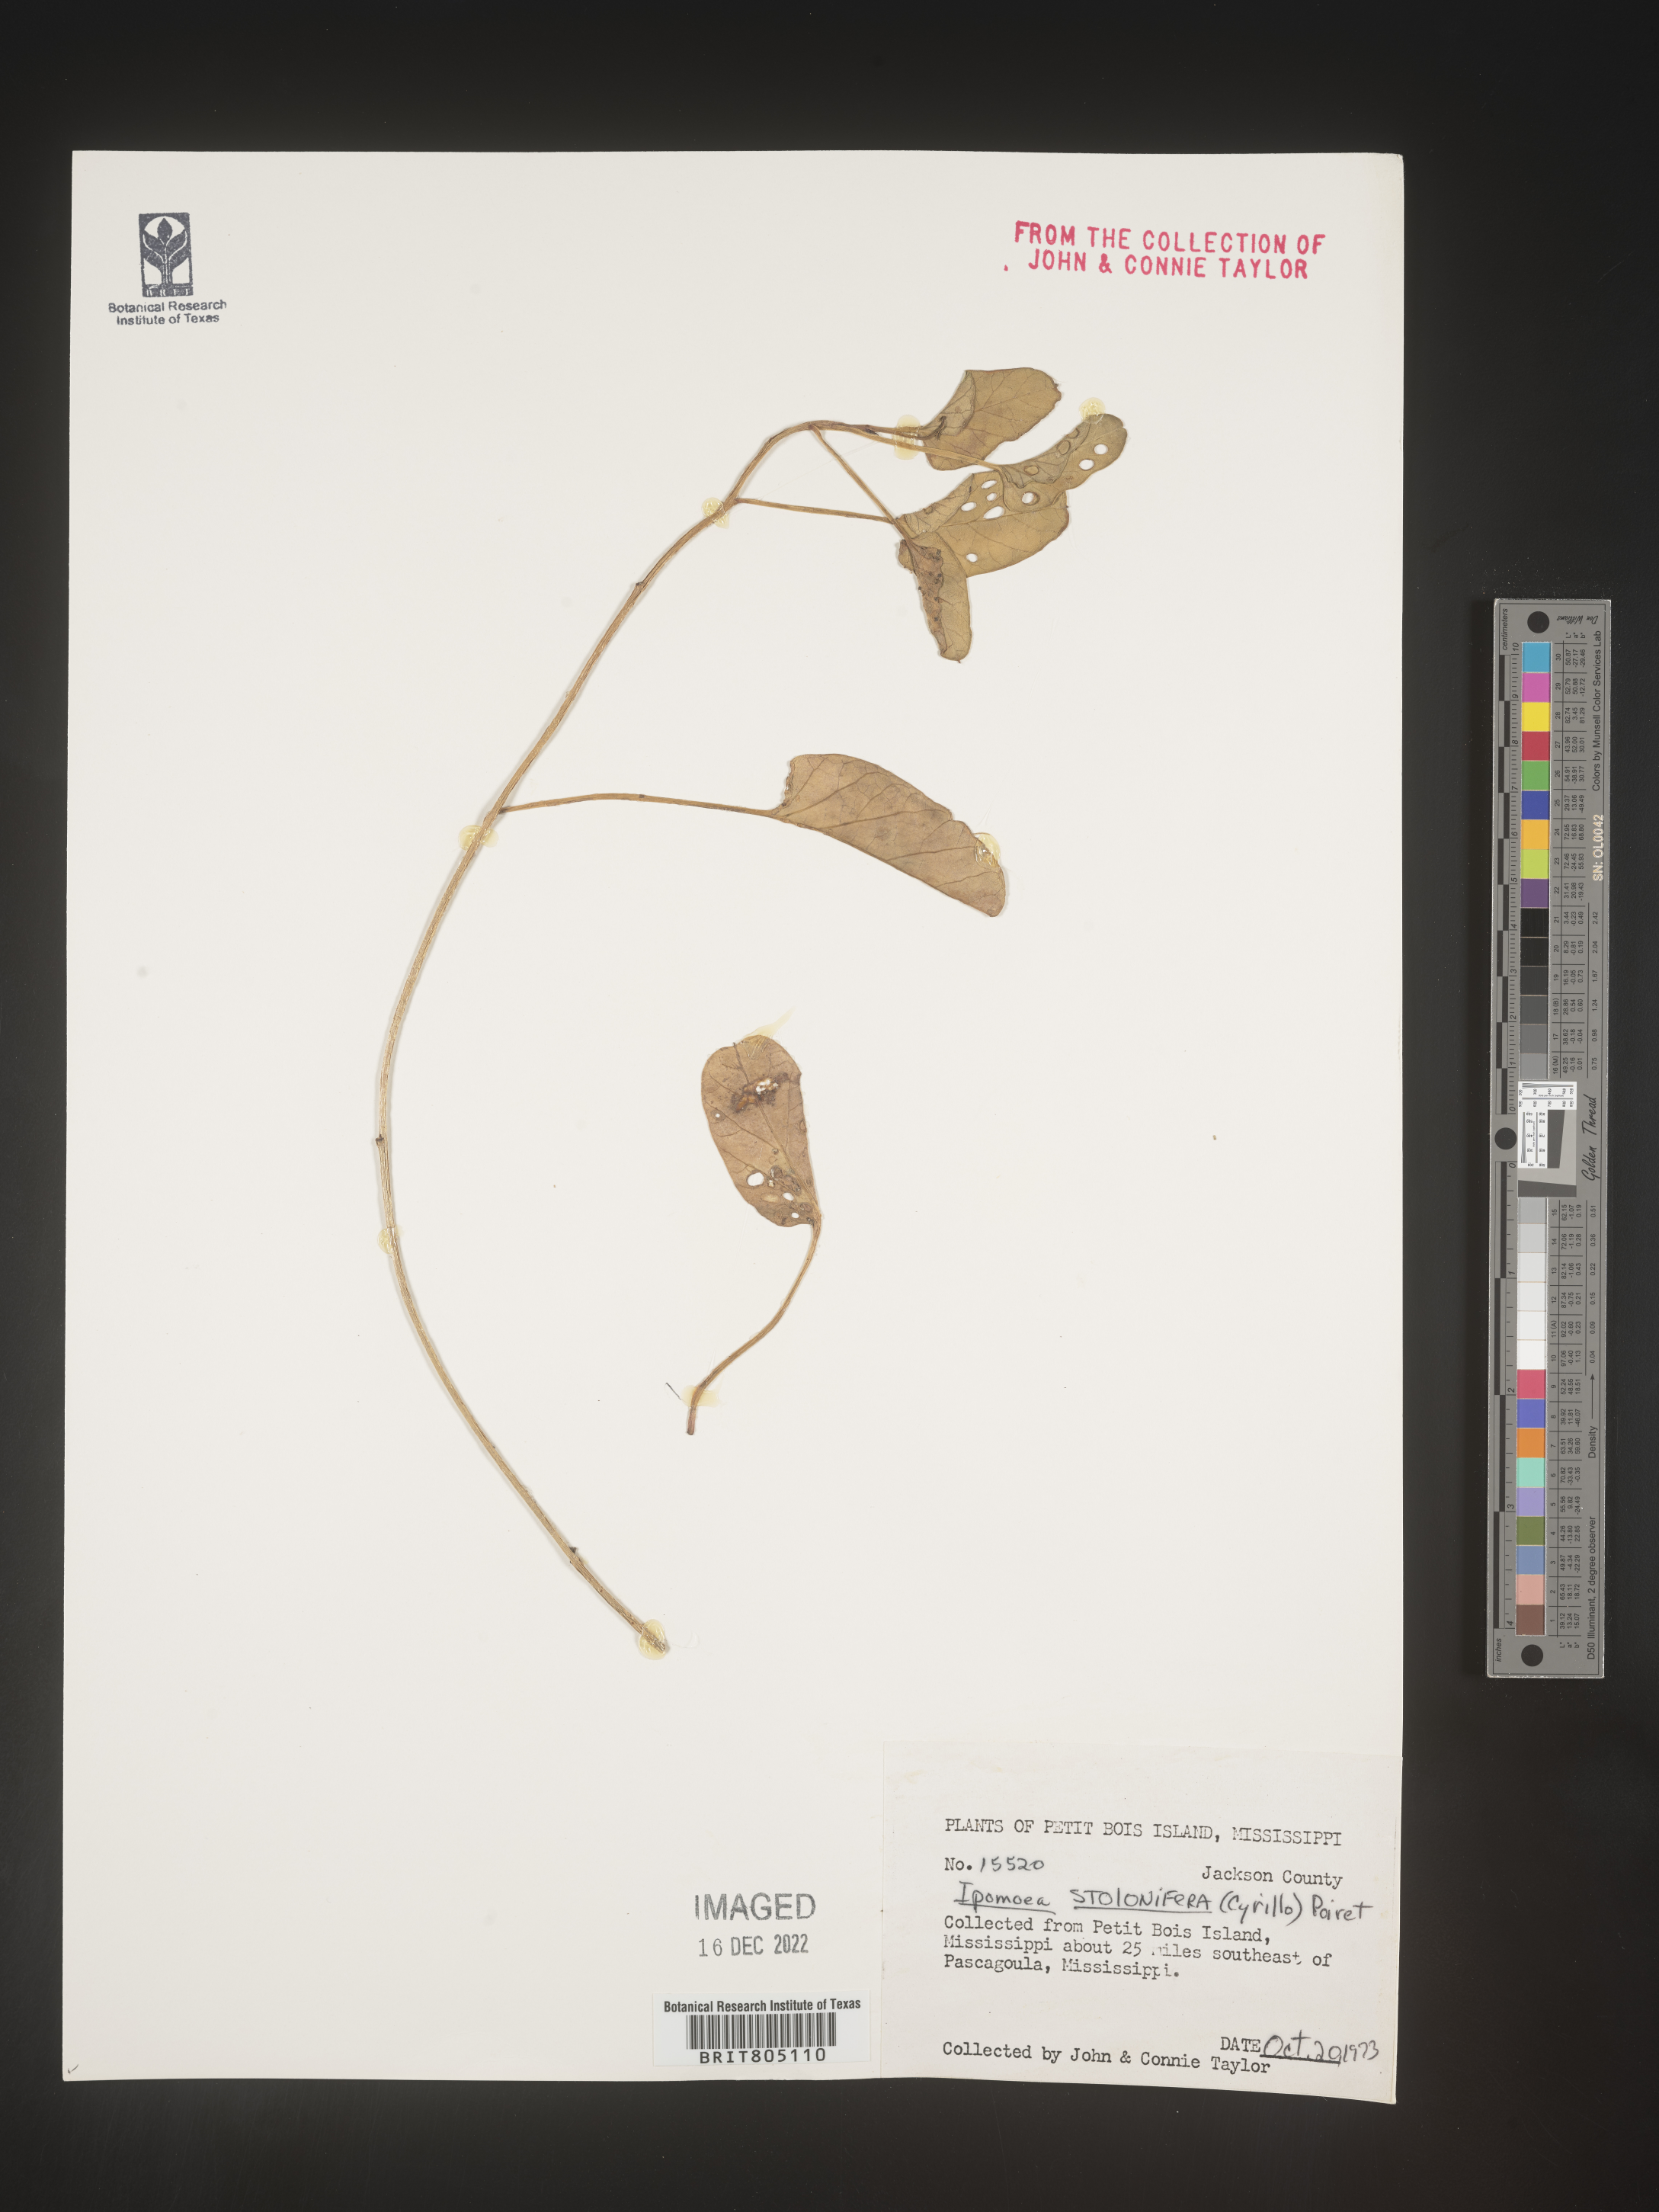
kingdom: Plantae
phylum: Tracheophyta
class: Magnoliopsida
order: Solanales
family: Convolvulaceae
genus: Ipomoea
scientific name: Ipomoea imperati
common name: Fiddle-leaf morning-glory
